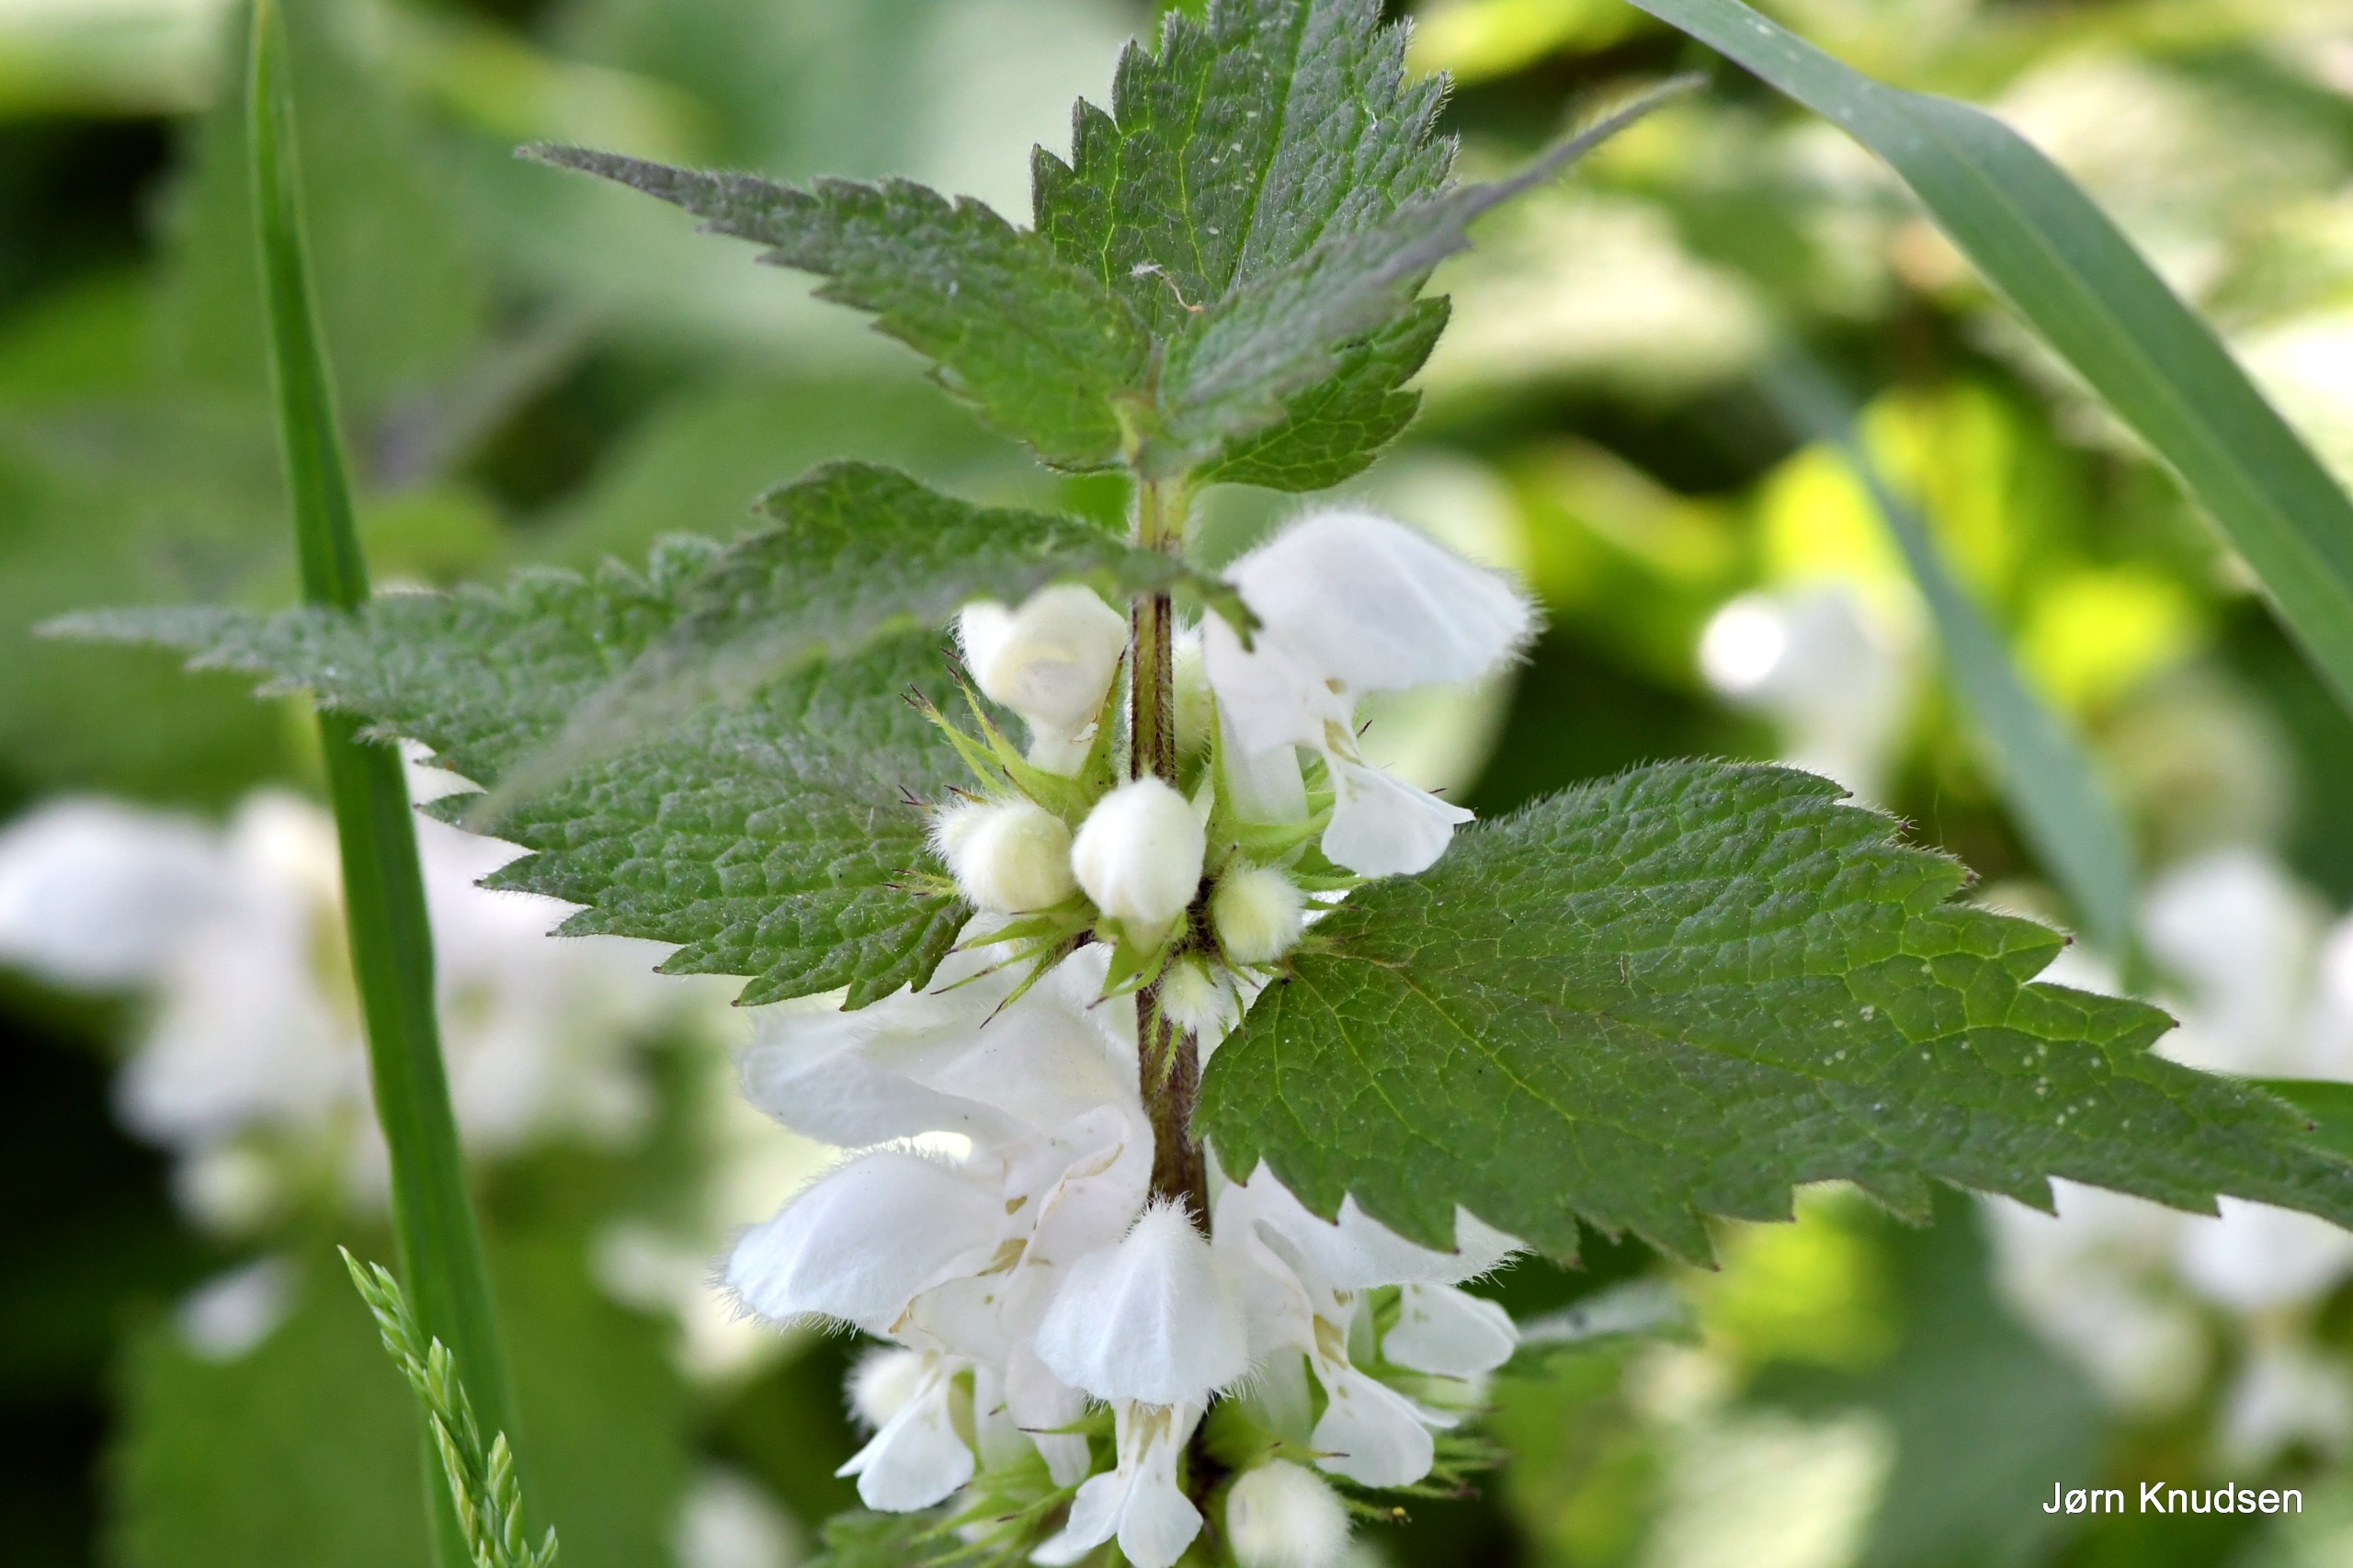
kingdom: Plantae
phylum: Tracheophyta
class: Magnoliopsida
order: Lamiales
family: Lamiaceae
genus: Lamium
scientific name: Lamium album
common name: Døvnælde
